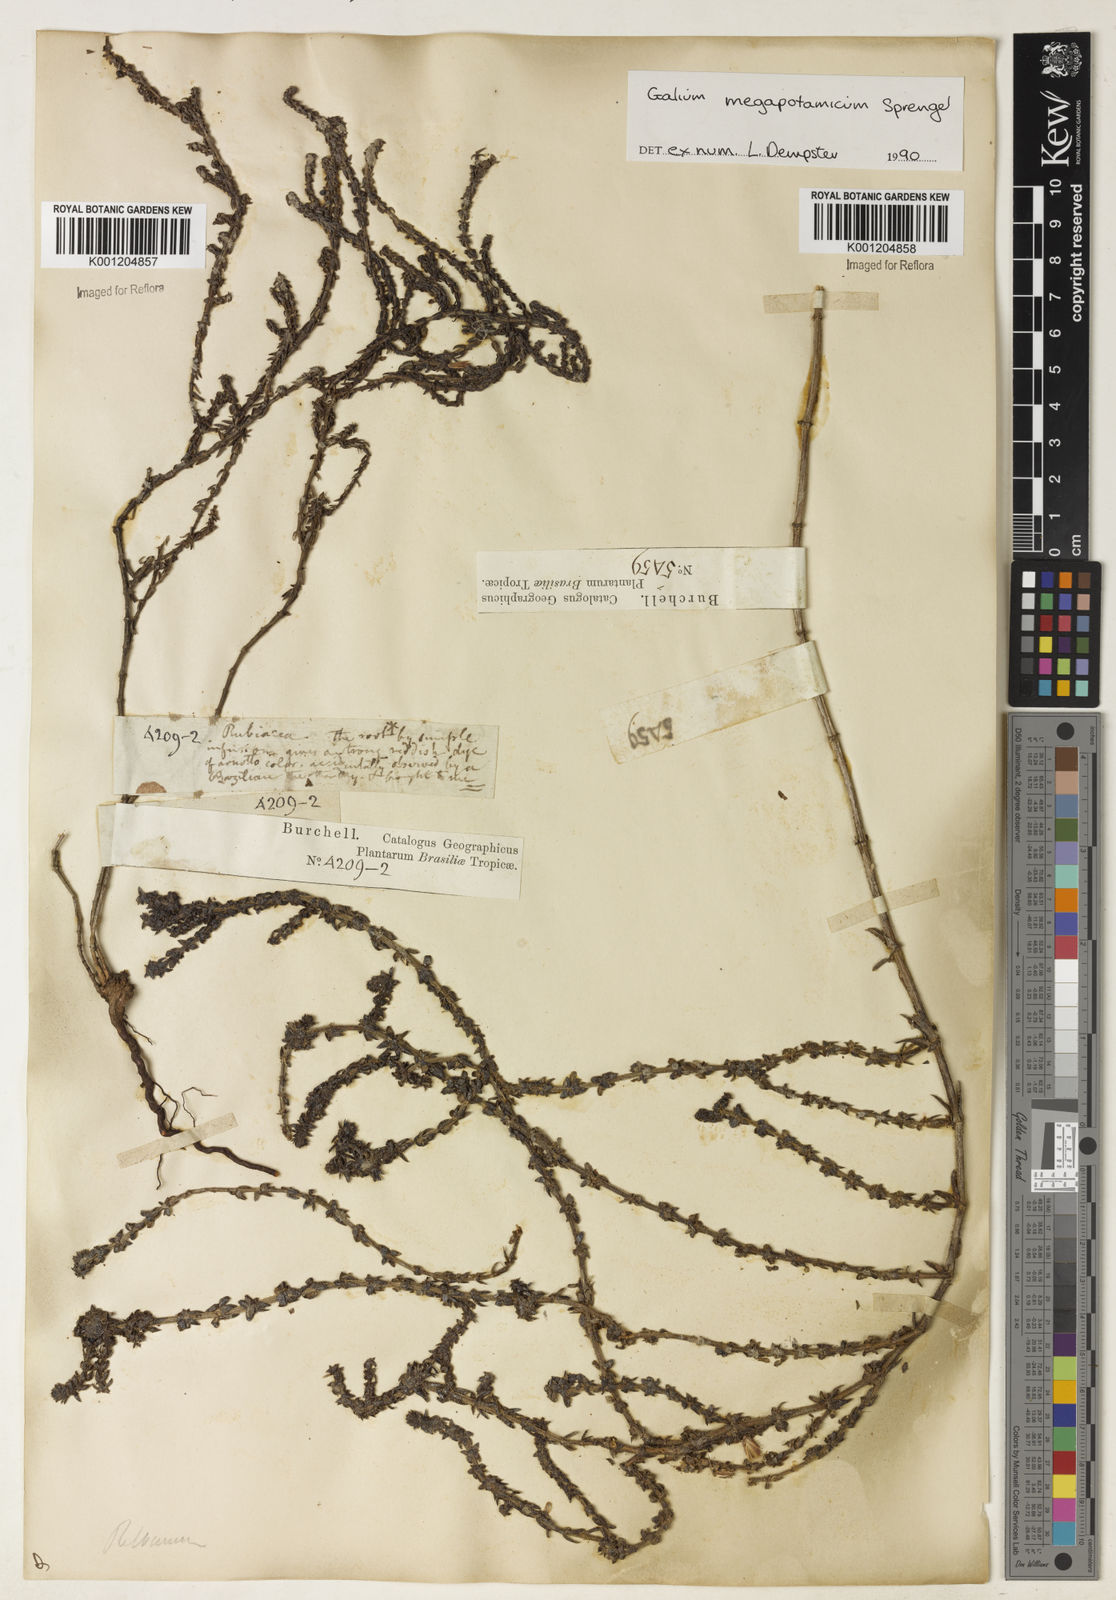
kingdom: Plantae
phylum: Tracheophyta
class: Magnoliopsida
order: Gentianales
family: Rubiaceae
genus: Galium
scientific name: Galium megapotamicum
